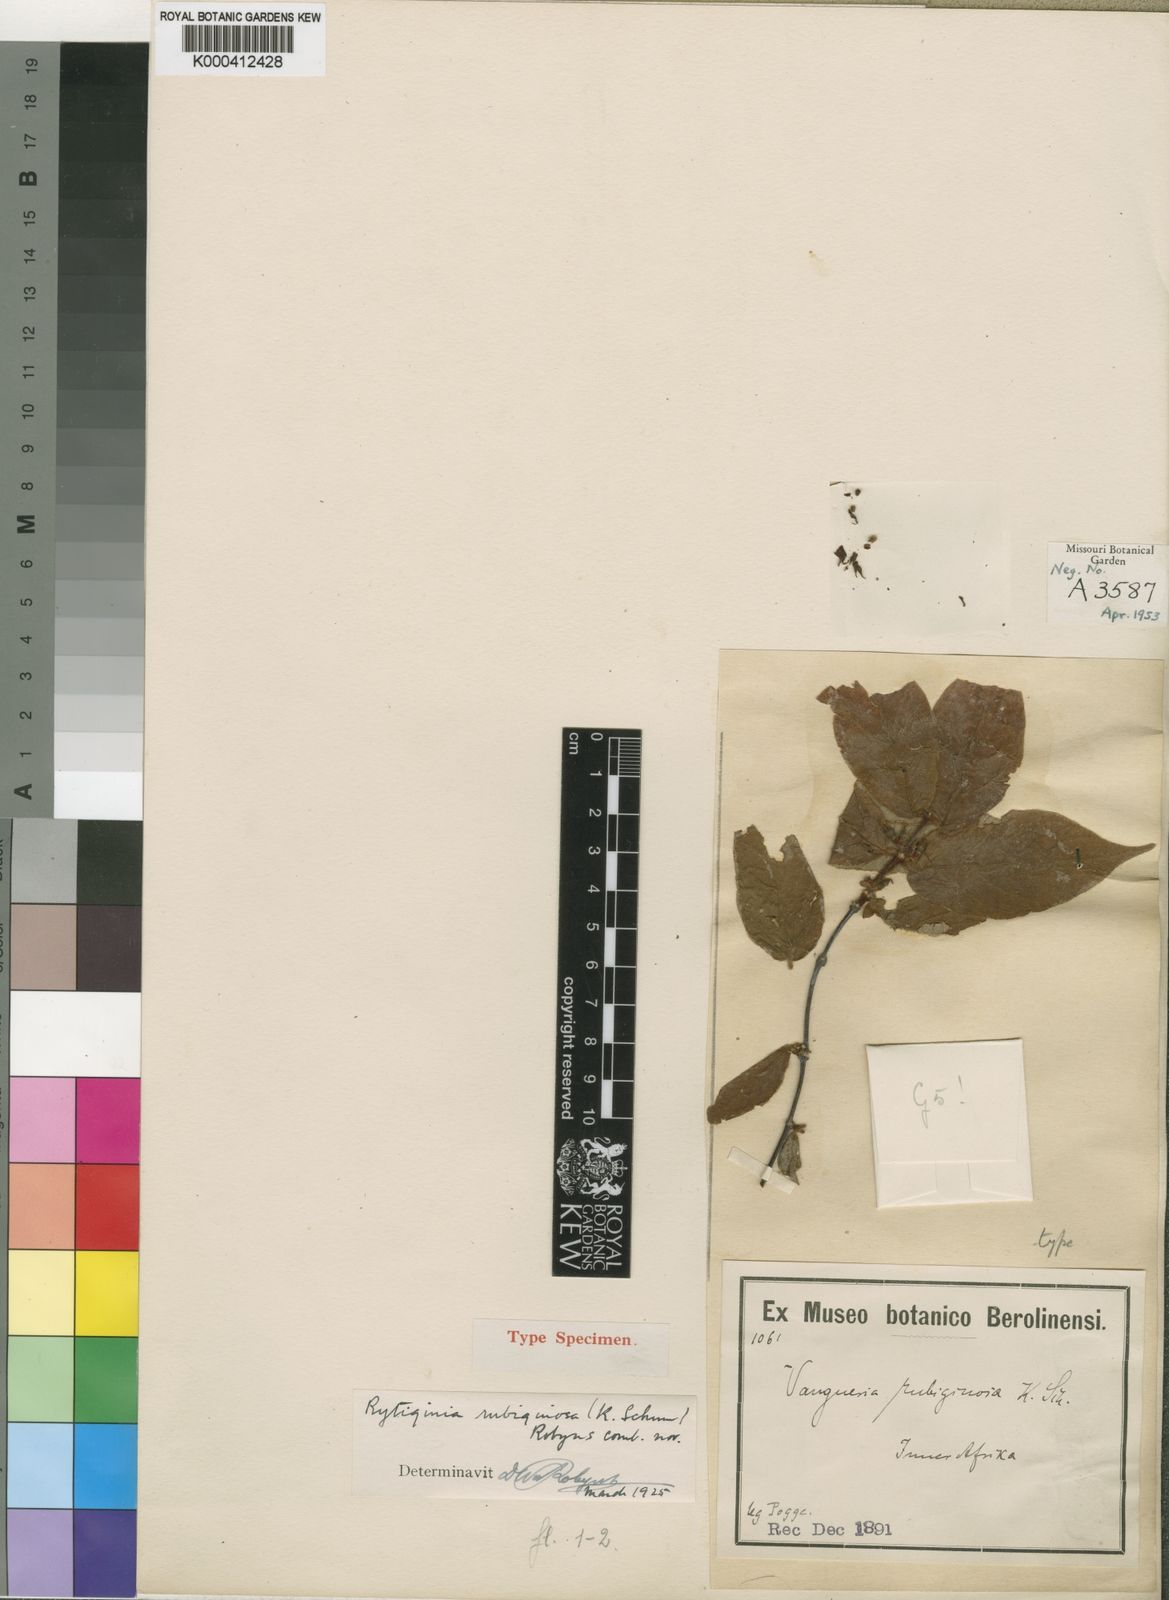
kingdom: Plantae
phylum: Tracheophyta
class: Magnoliopsida
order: Gentianales
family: Rubiaceae
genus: Rytigynia
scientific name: Rytigynia rubiginosa
